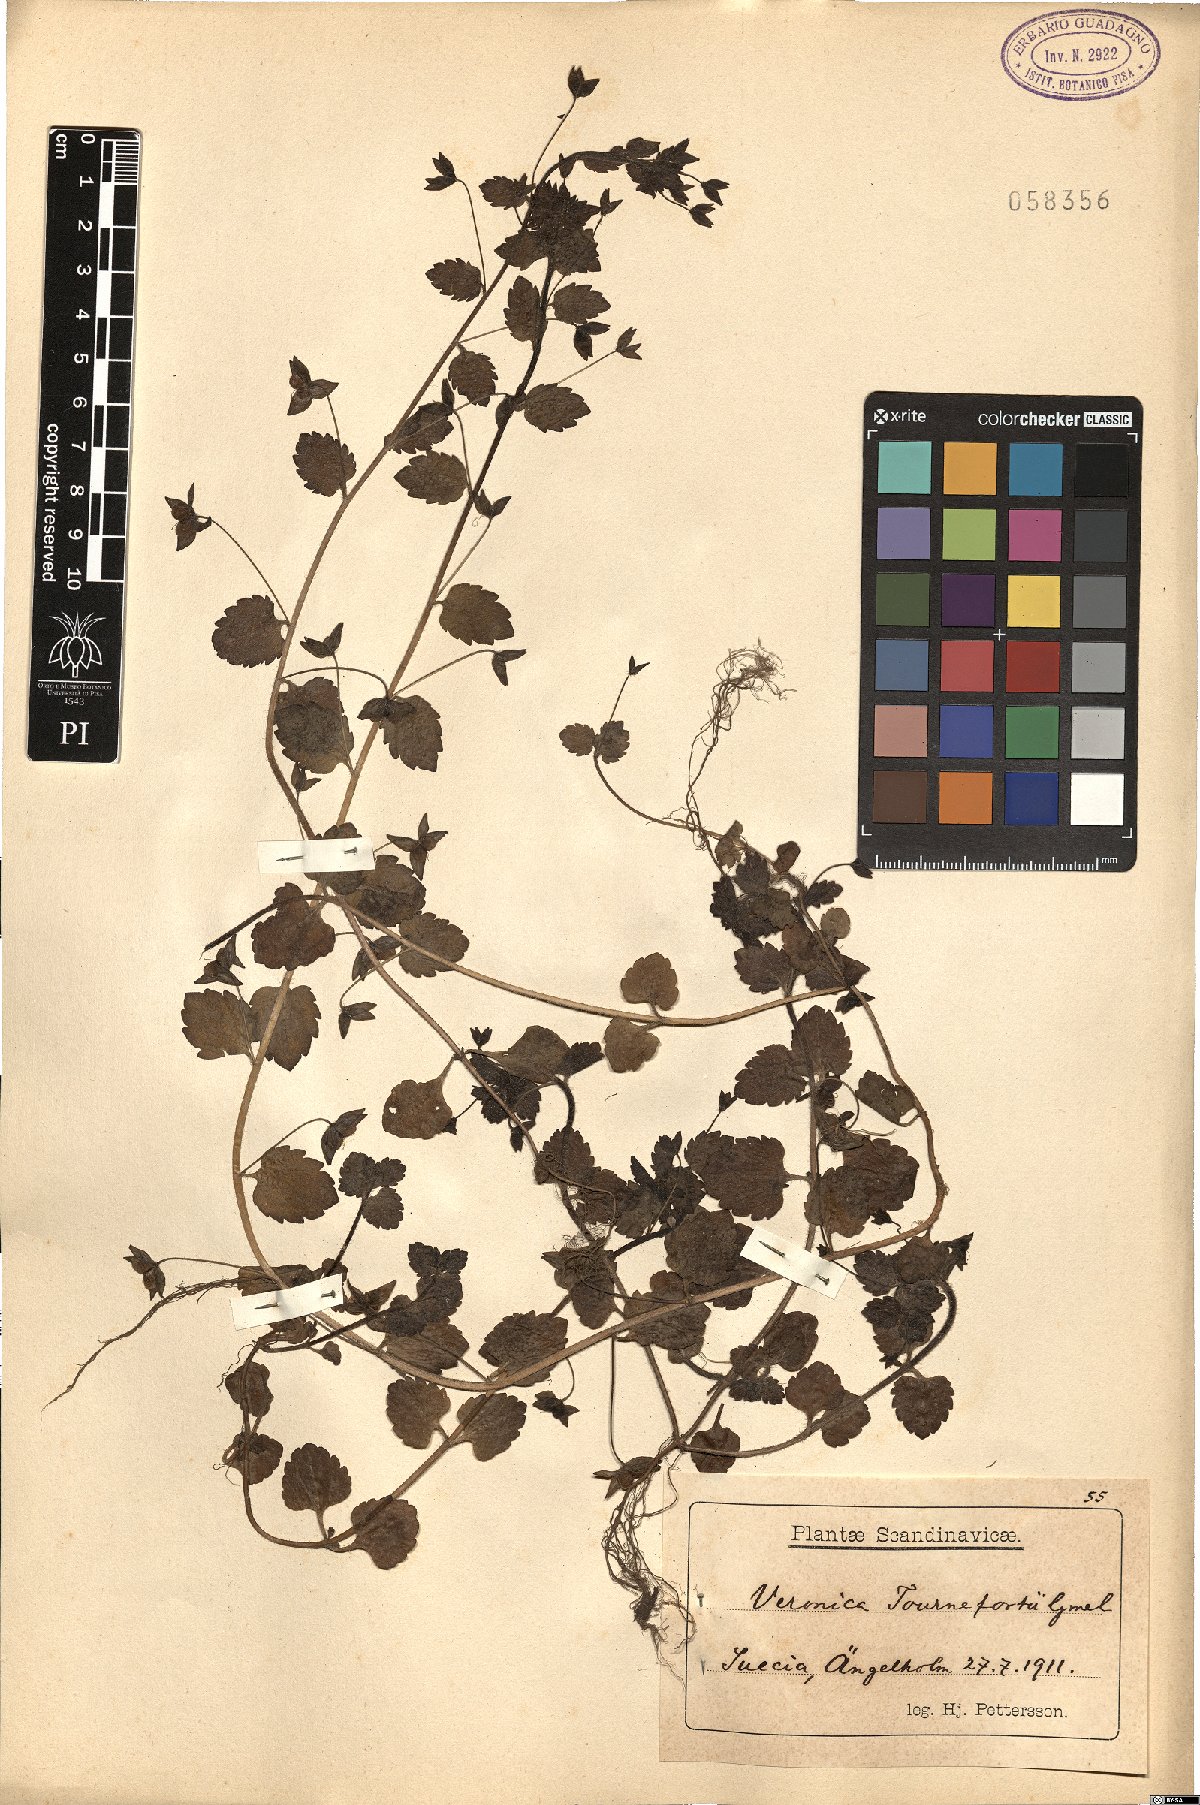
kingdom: Plantae
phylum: Tracheophyta
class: Magnoliopsida
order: Lamiales
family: Plantaginaceae
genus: Veronica
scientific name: Veronica persica
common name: Common field-speedwell
